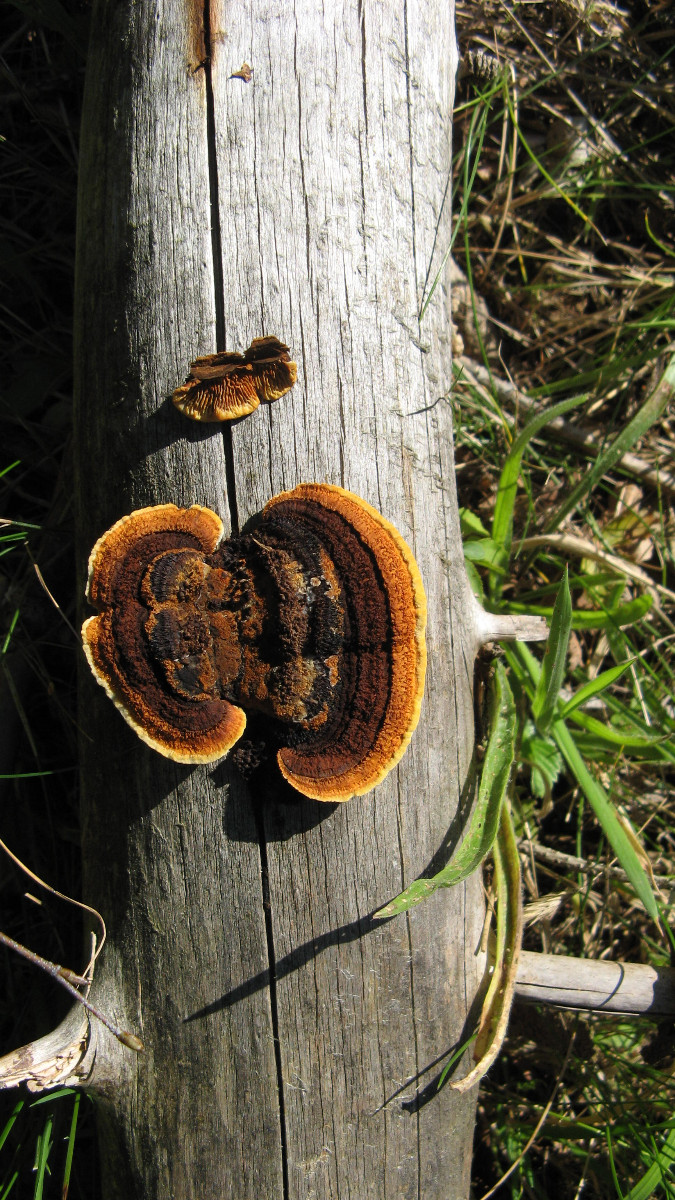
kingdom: Fungi
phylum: Basidiomycota
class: Agaricomycetes
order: Gloeophyllales
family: Gloeophyllaceae
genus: Gloeophyllum
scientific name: Gloeophyllum sepiarium
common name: fyrre-korkhat
